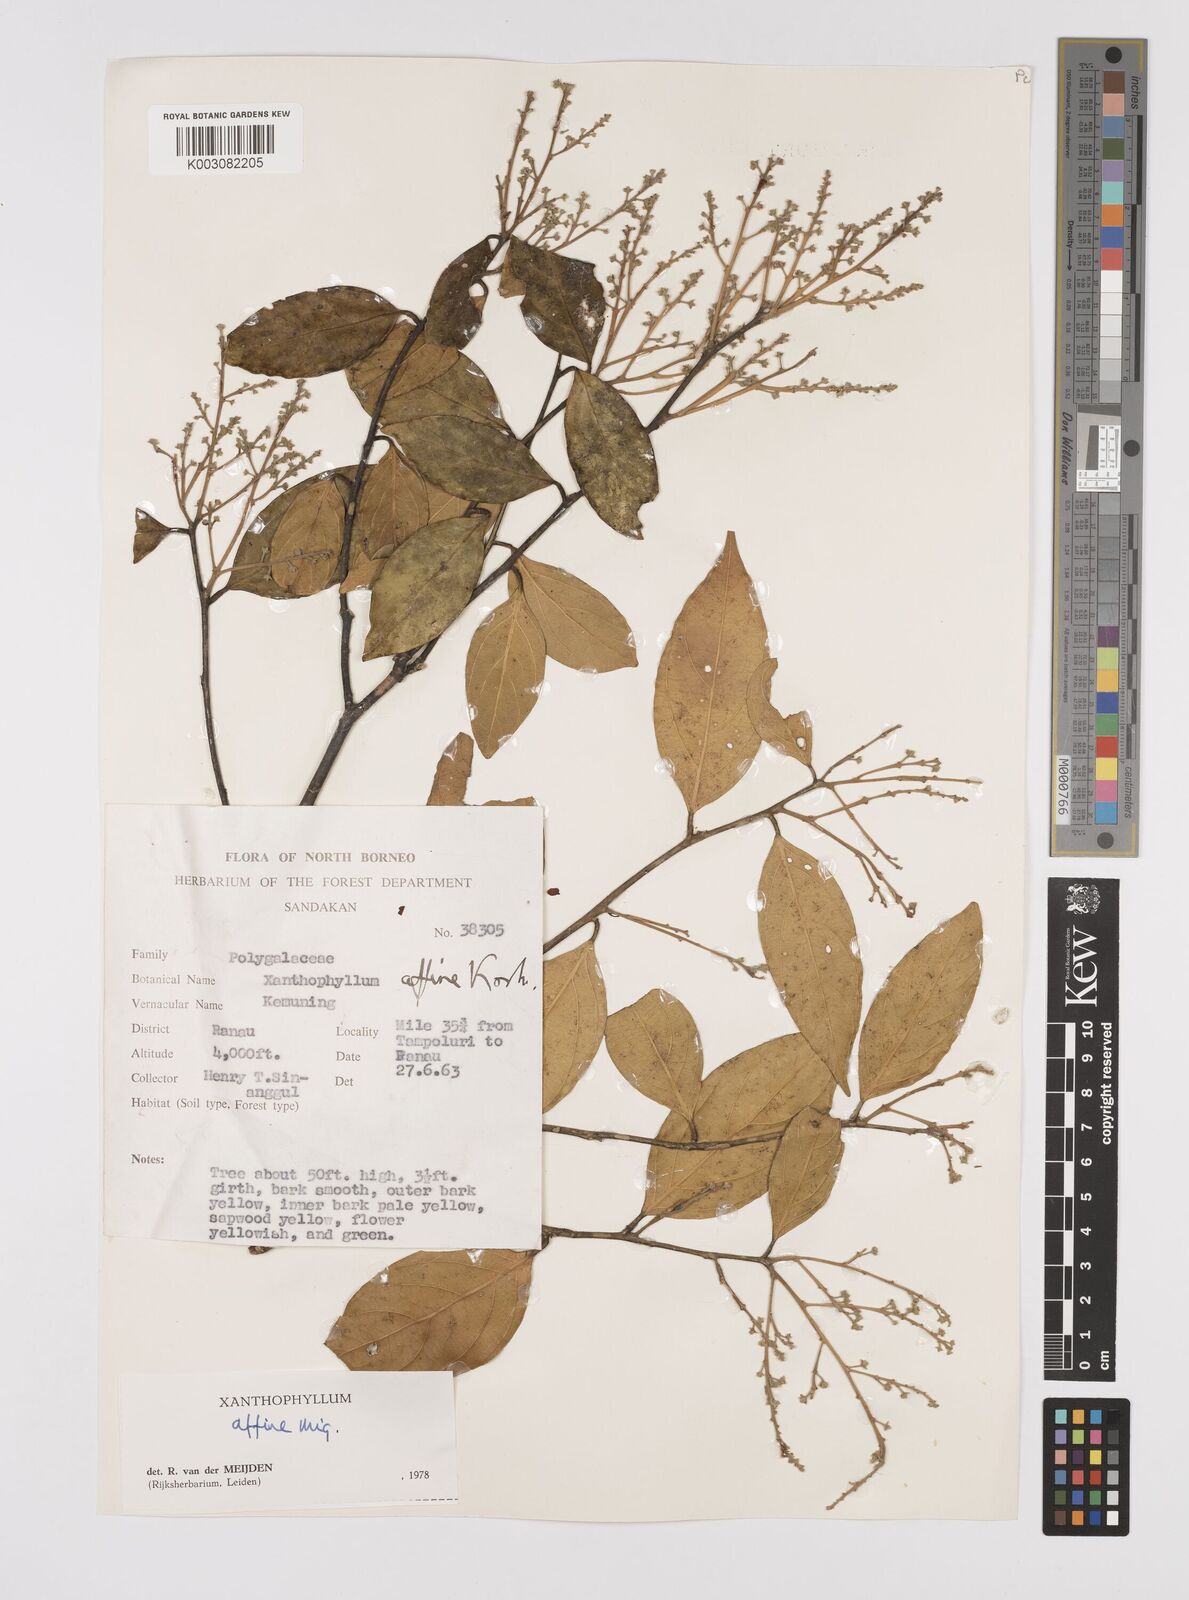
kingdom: Plantae
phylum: Tracheophyta
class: Magnoliopsida
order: Fabales
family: Polygalaceae
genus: Xanthophyllum
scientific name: Xanthophyllum flavescens
